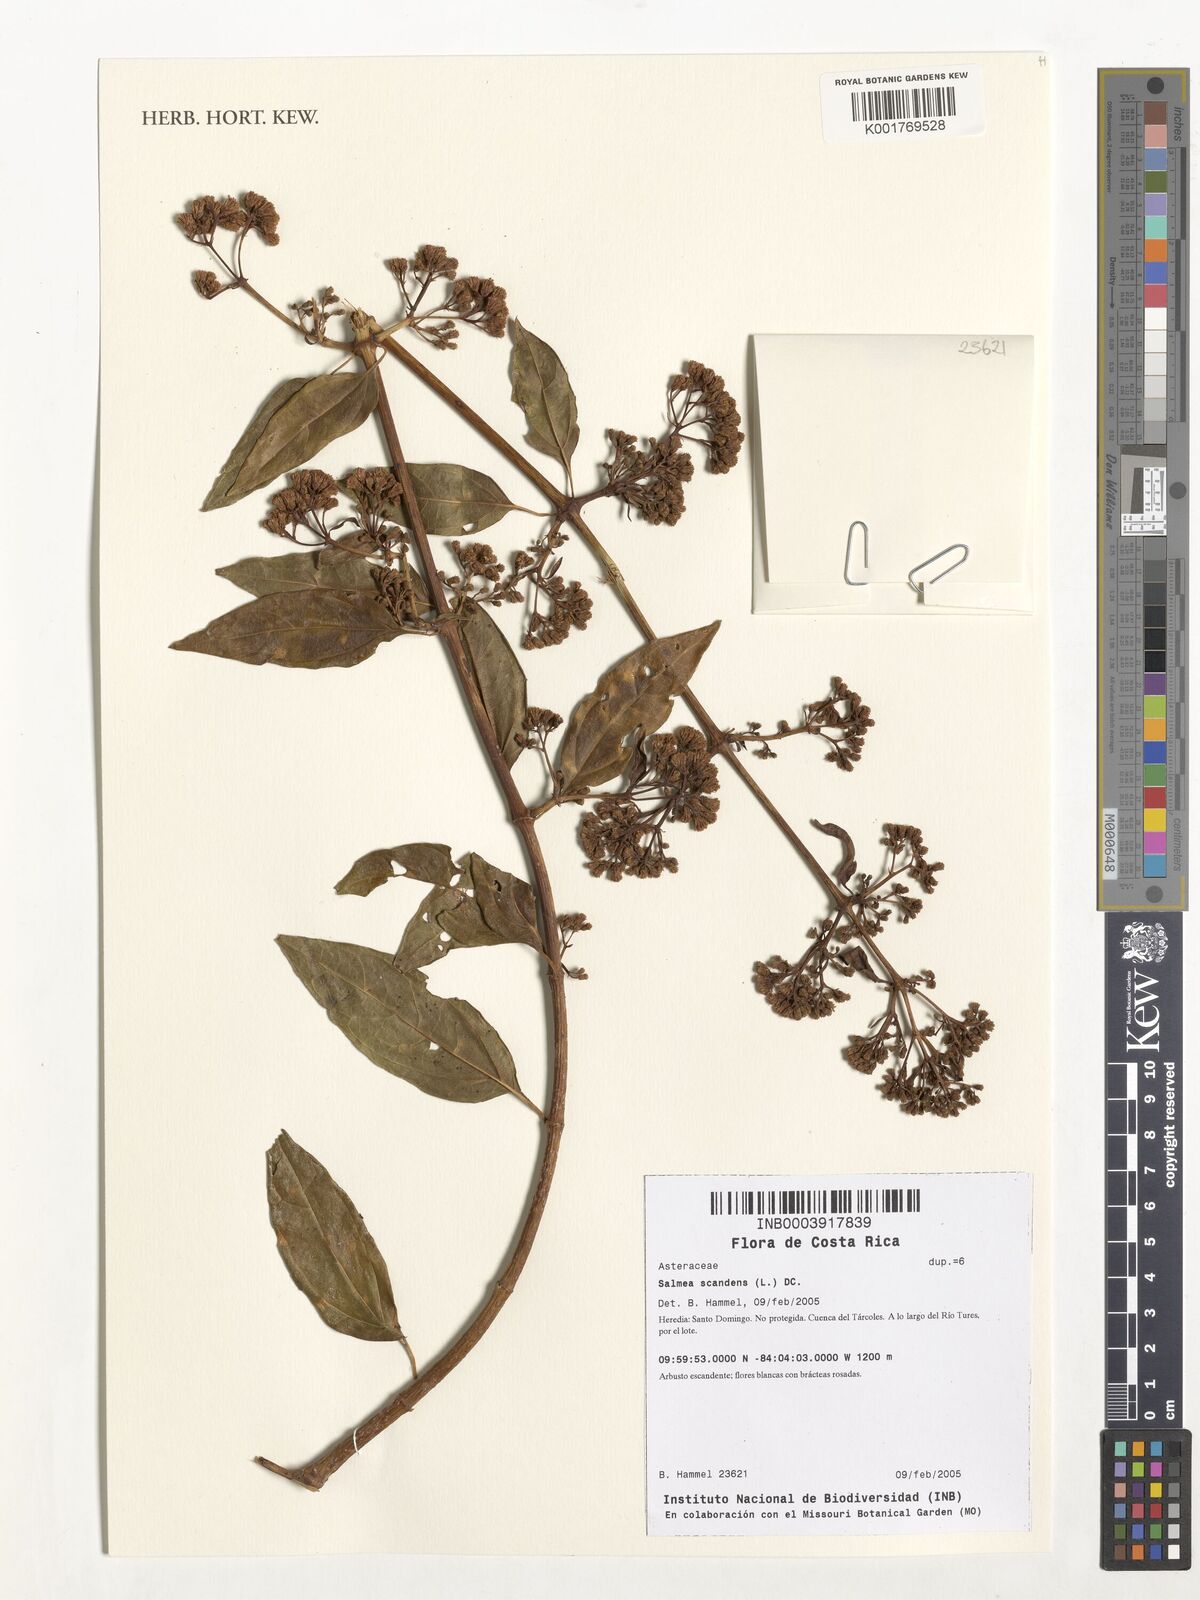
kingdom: Plantae
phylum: Tracheophyta
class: Magnoliopsida
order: Asterales
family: Asteraceae
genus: Salmea
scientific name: Salmea scandens
